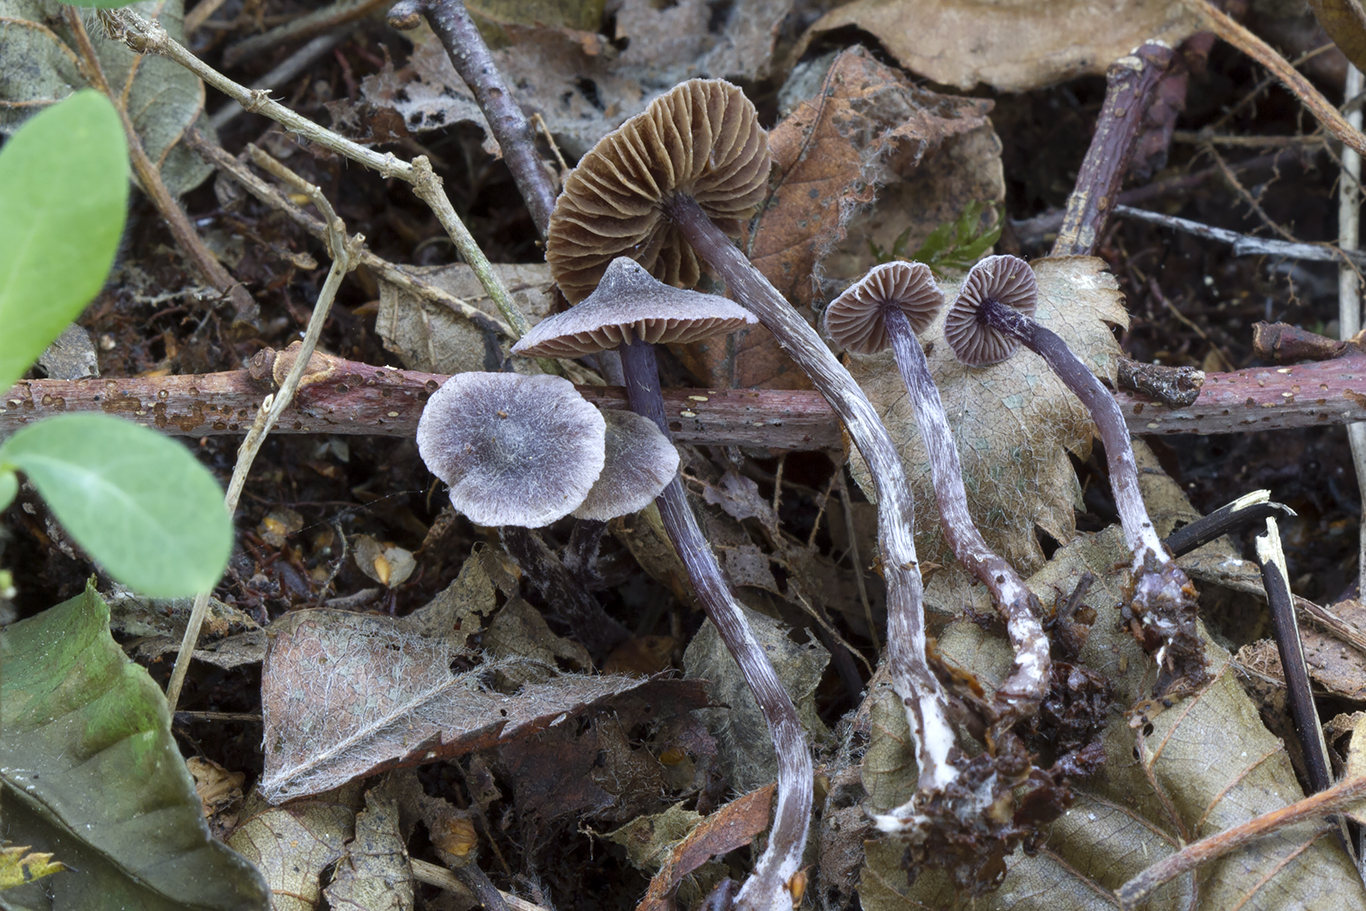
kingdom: Fungi
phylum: Basidiomycota
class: Agaricomycetes
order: Agaricales
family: Cortinariaceae
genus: Cortinarius
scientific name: Cortinarius americanus
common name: natsort slørhat
